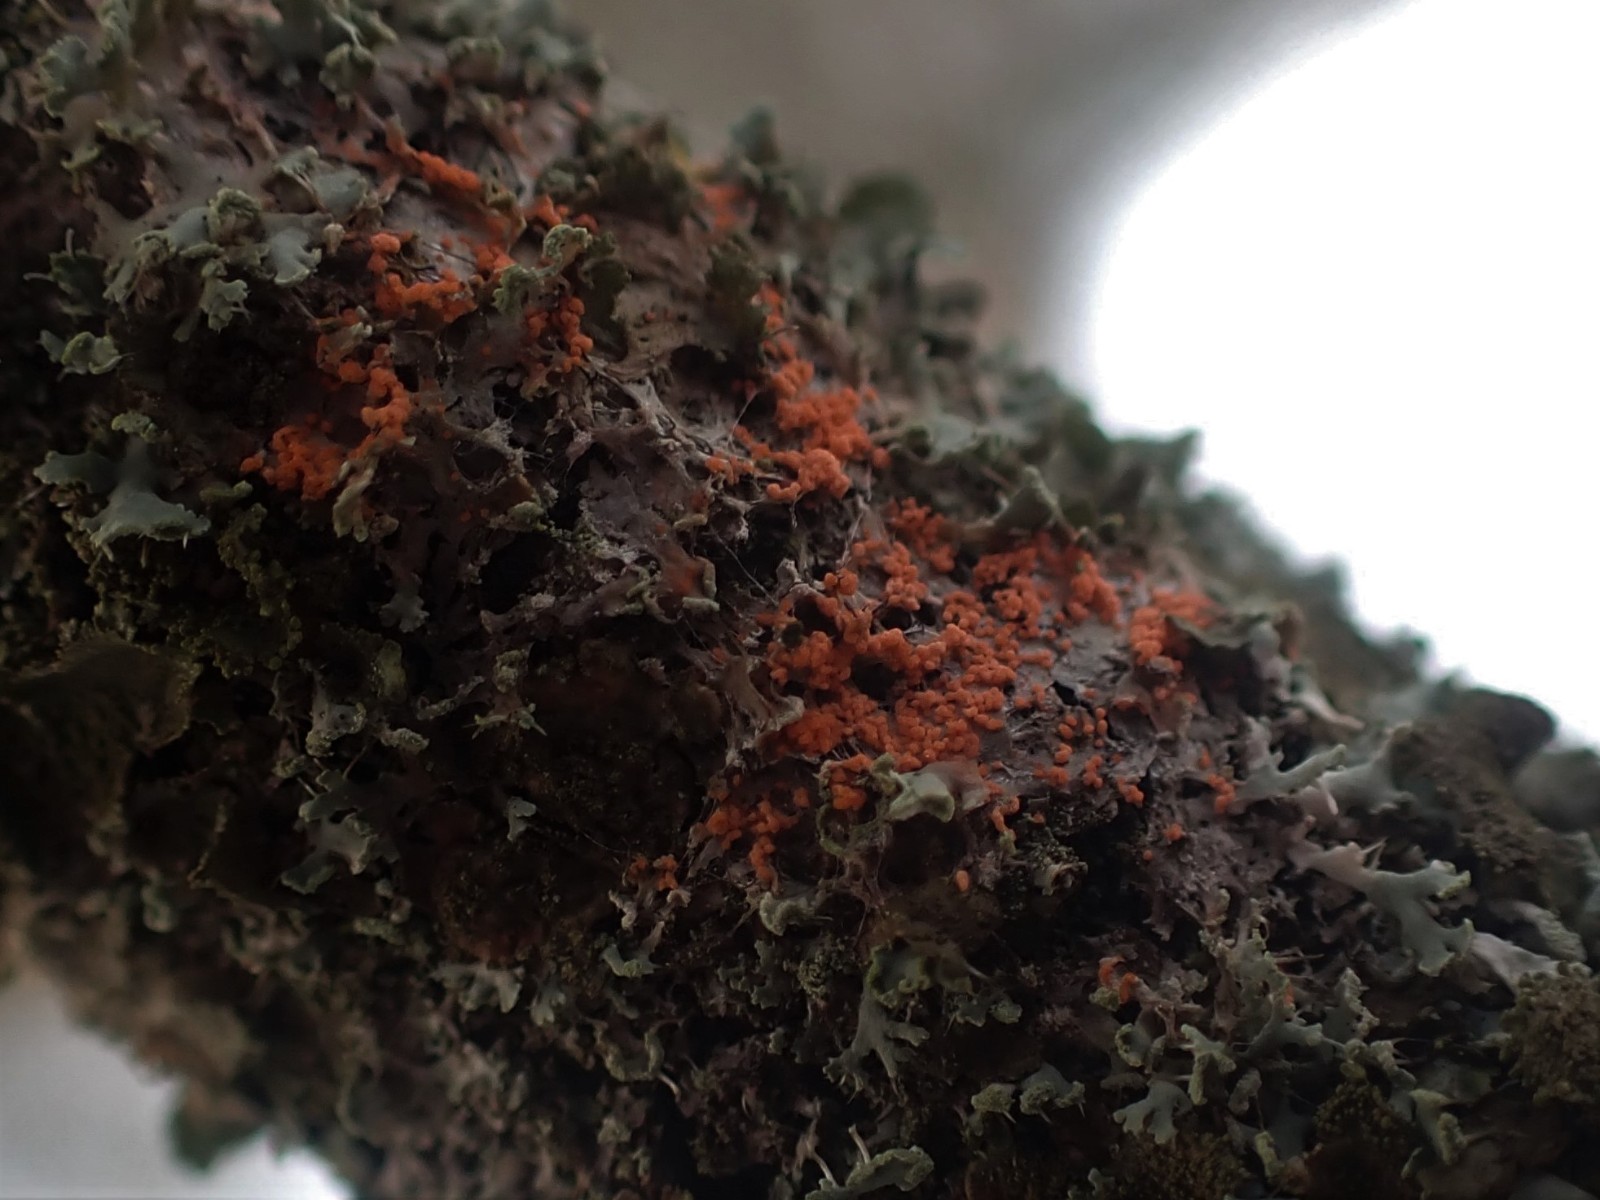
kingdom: Fungi
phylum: Basidiomycota
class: Agaricomycetes
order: Corticiales
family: Corticiaceae
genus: Erythricium
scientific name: Erythricium aurantiacum
